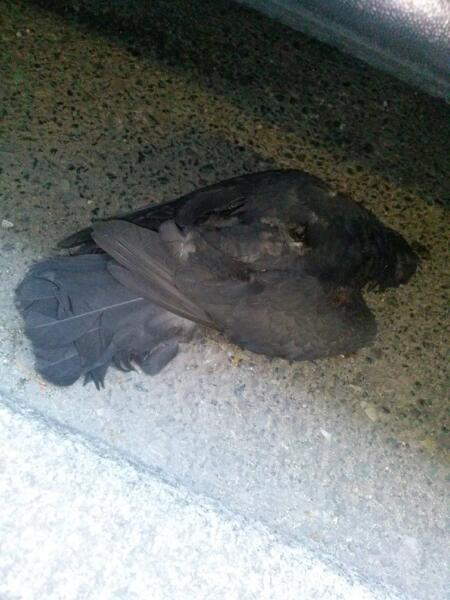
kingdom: Animalia
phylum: Chordata
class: Aves
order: Columbiformes
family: Columbidae
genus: Columba
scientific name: Columba livia
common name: Rock pigeon
